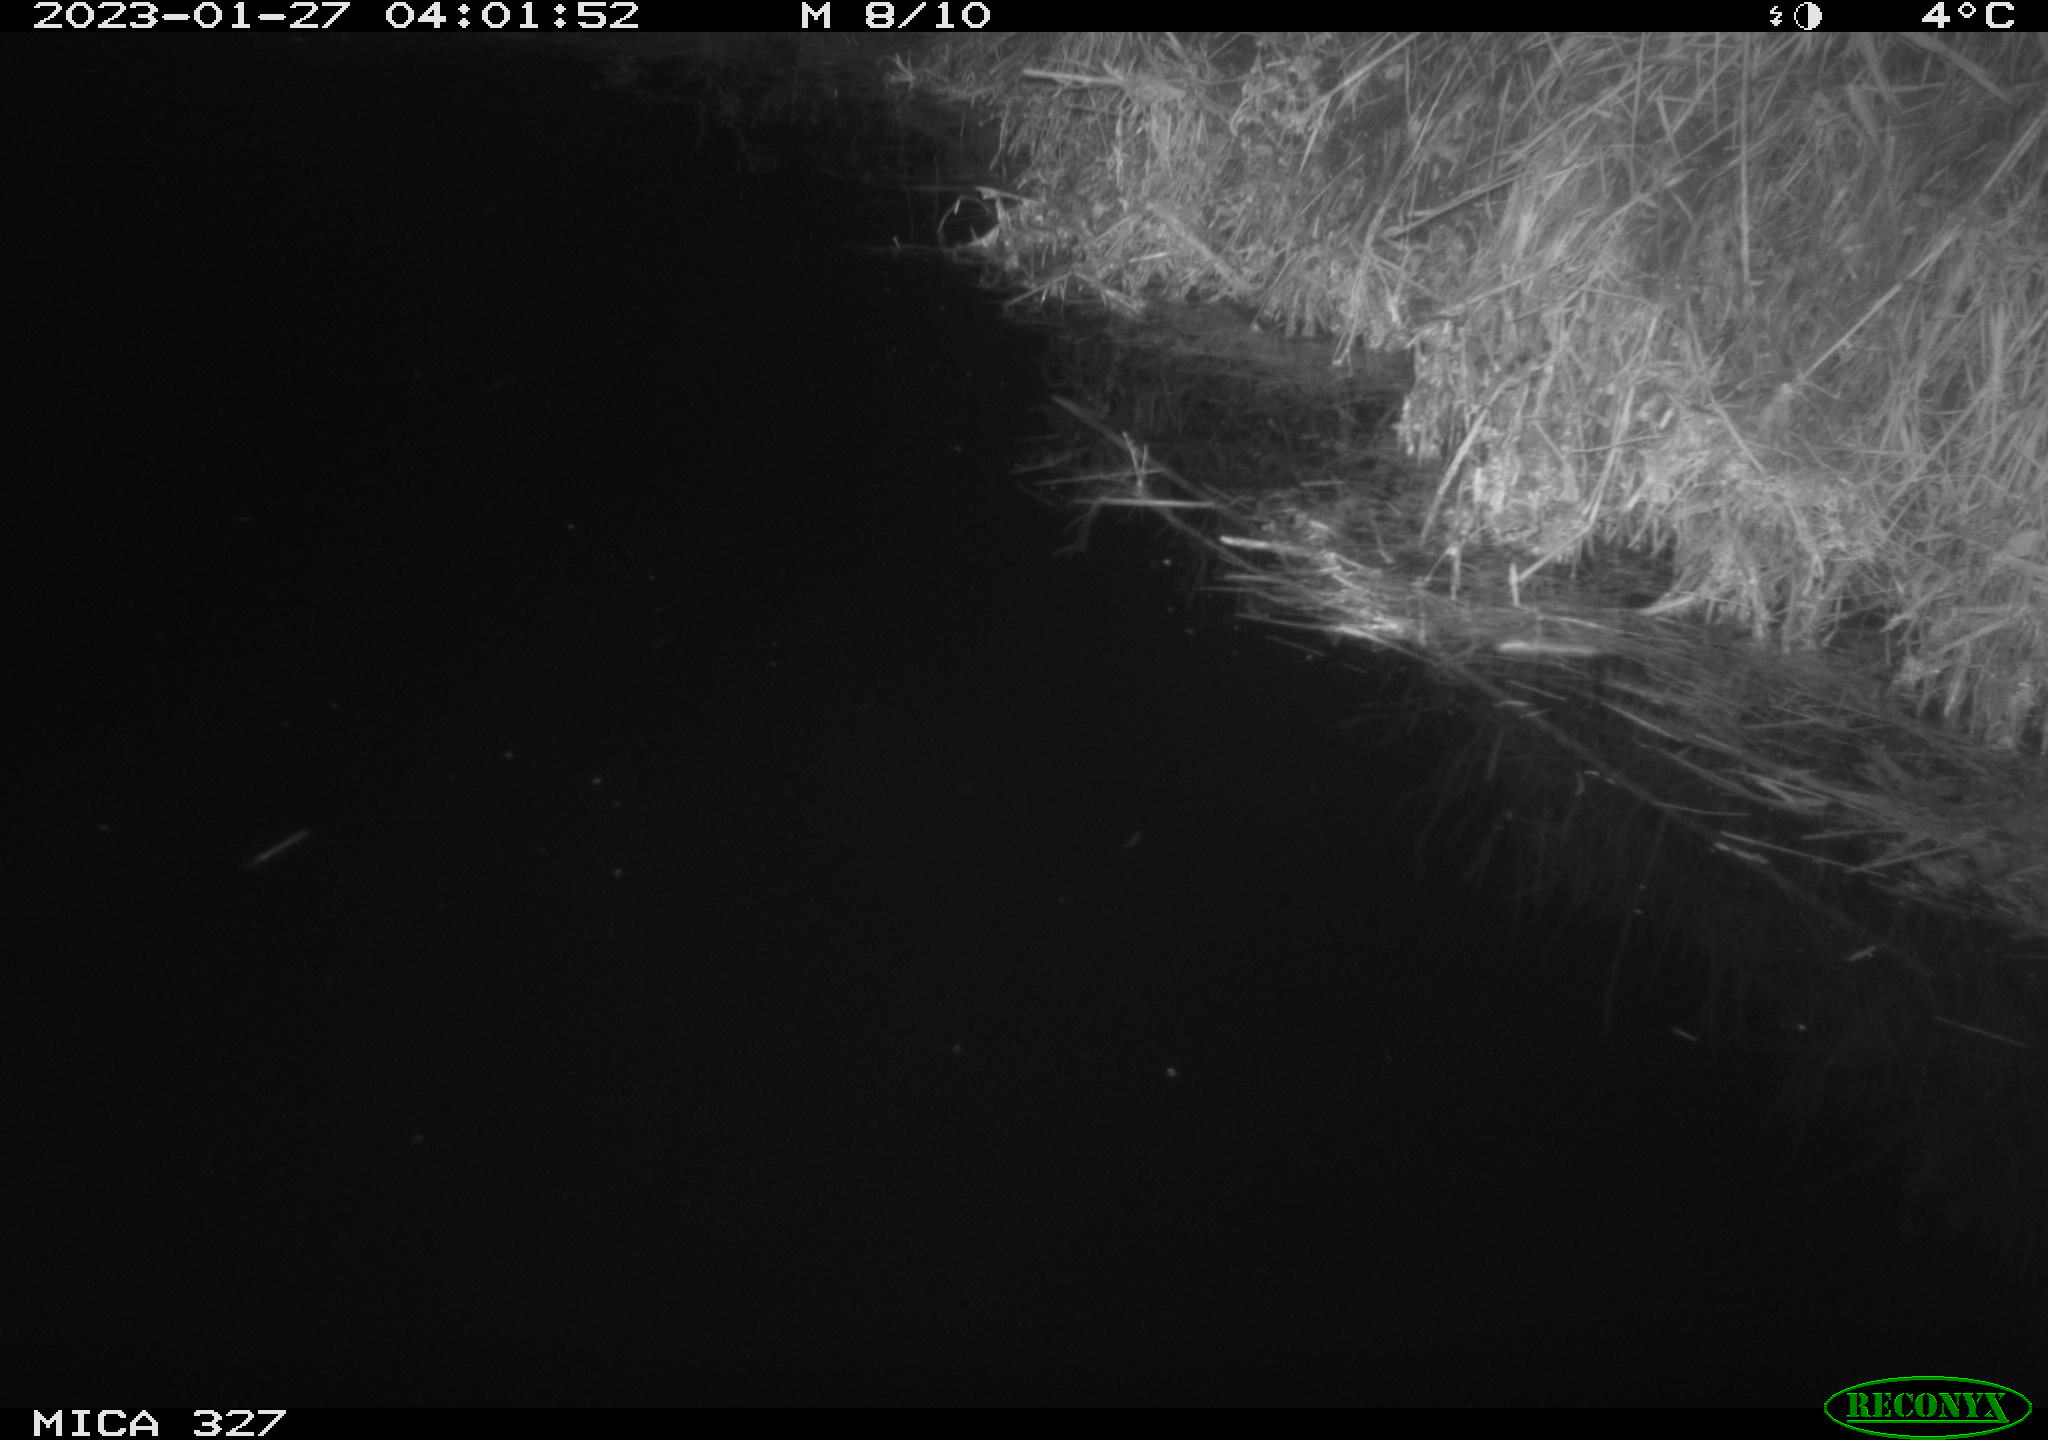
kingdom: Animalia
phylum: Chordata
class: Mammalia
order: Rodentia
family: Cricetidae
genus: Ondatra
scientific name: Ondatra zibethicus
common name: Muskrat
